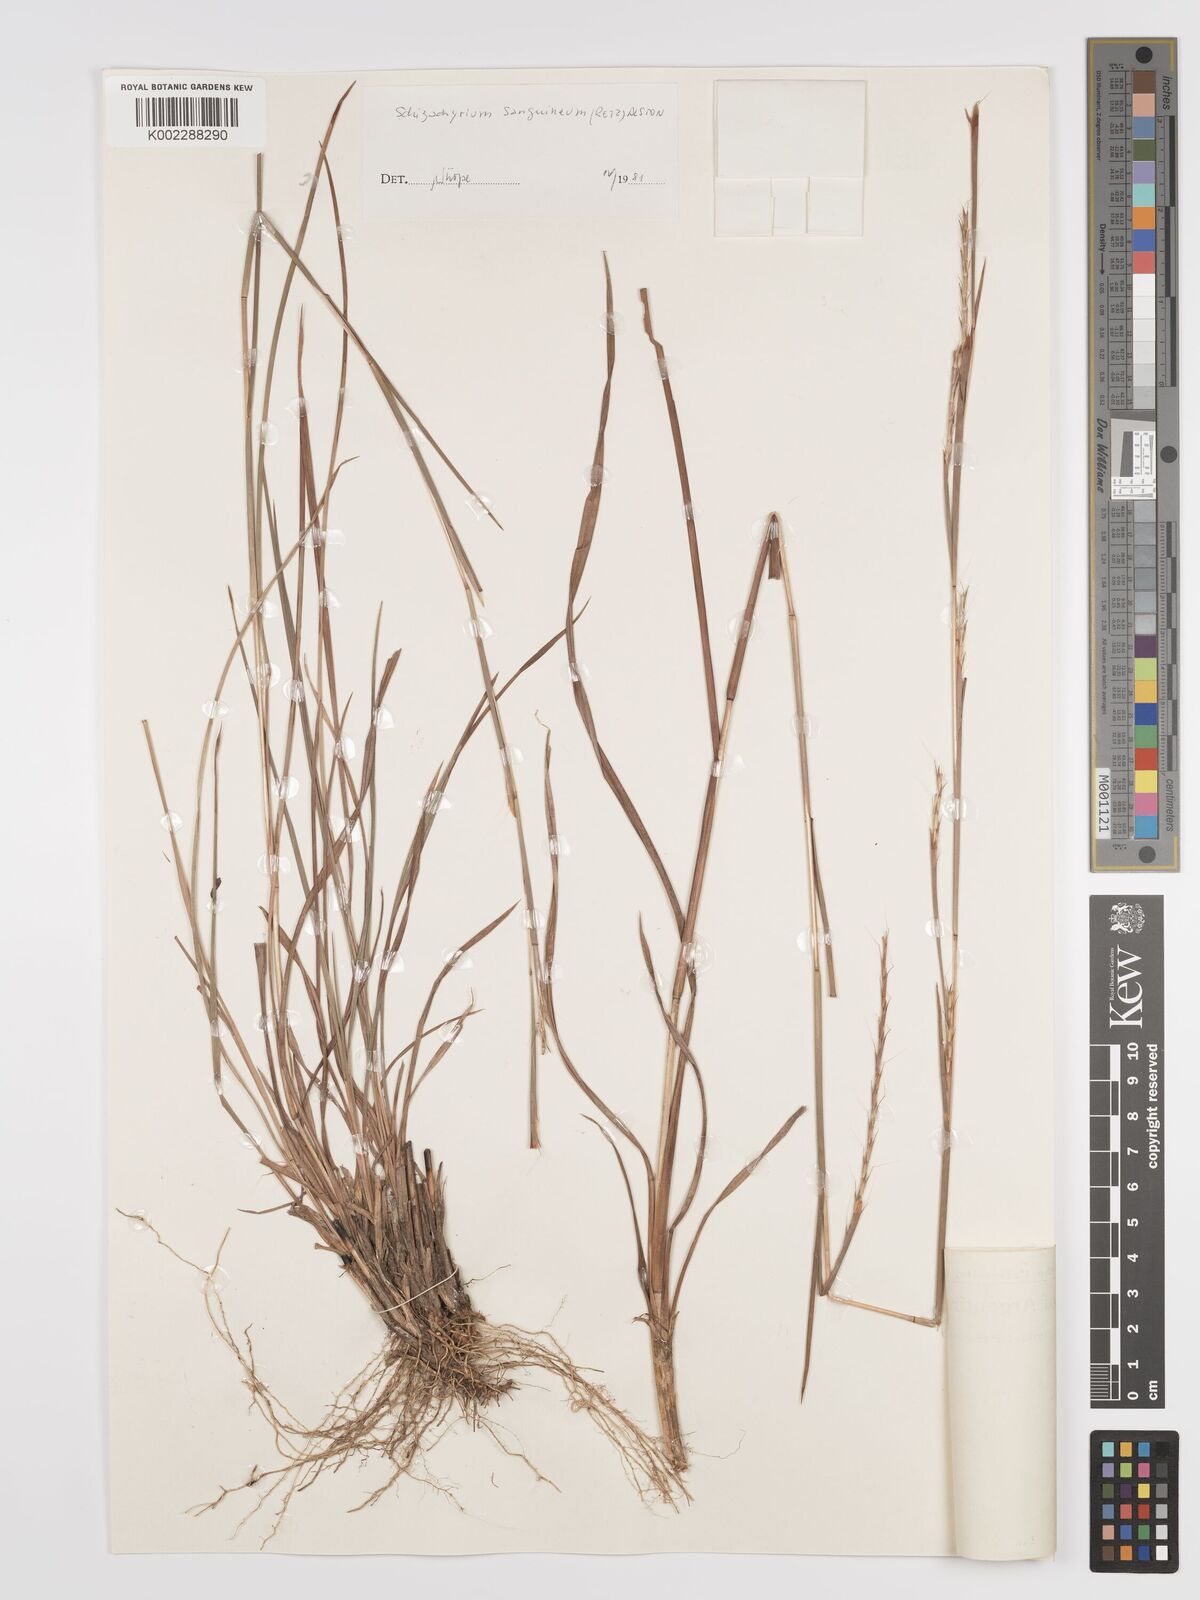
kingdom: Plantae
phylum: Tracheophyta
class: Liliopsida
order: Poales
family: Poaceae
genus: Schizachyrium
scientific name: Schizachyrium sanguineum
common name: Crimson bluestem
